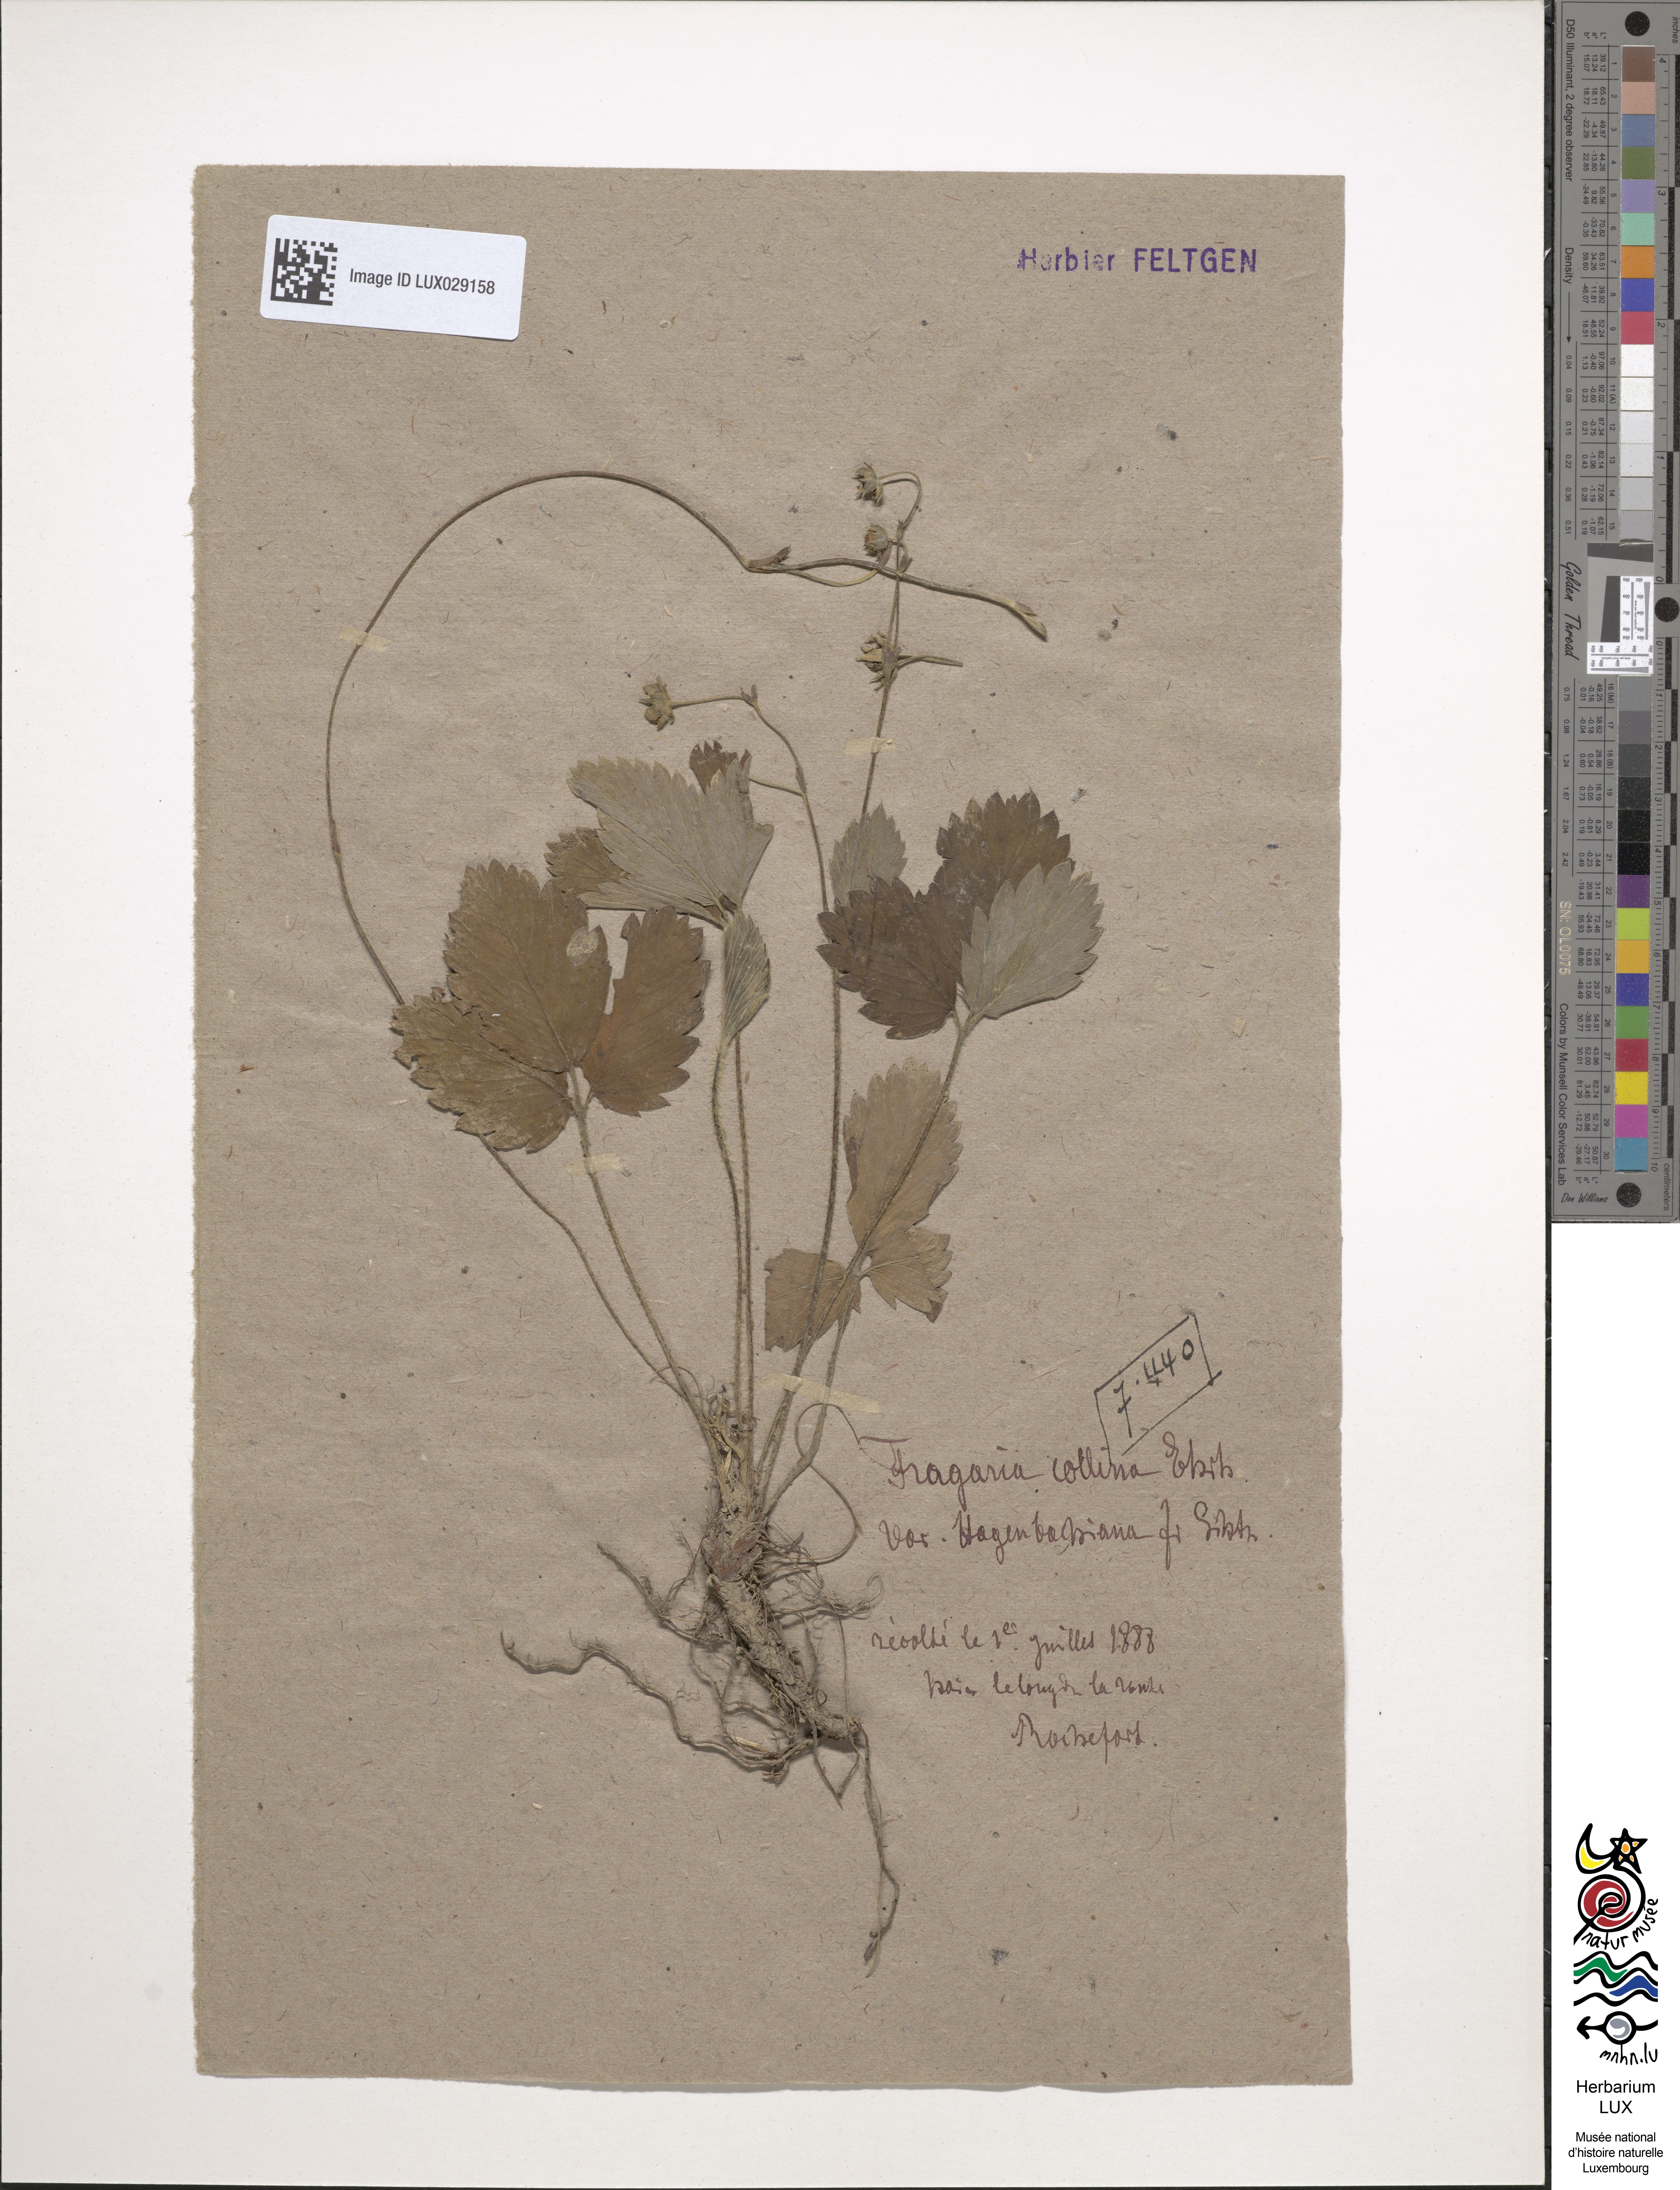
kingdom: Plantae
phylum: Tracheophyta
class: Magnoliopsida
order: Rosales
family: Rosaceae
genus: Fragaria
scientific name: Fragaria bifera
